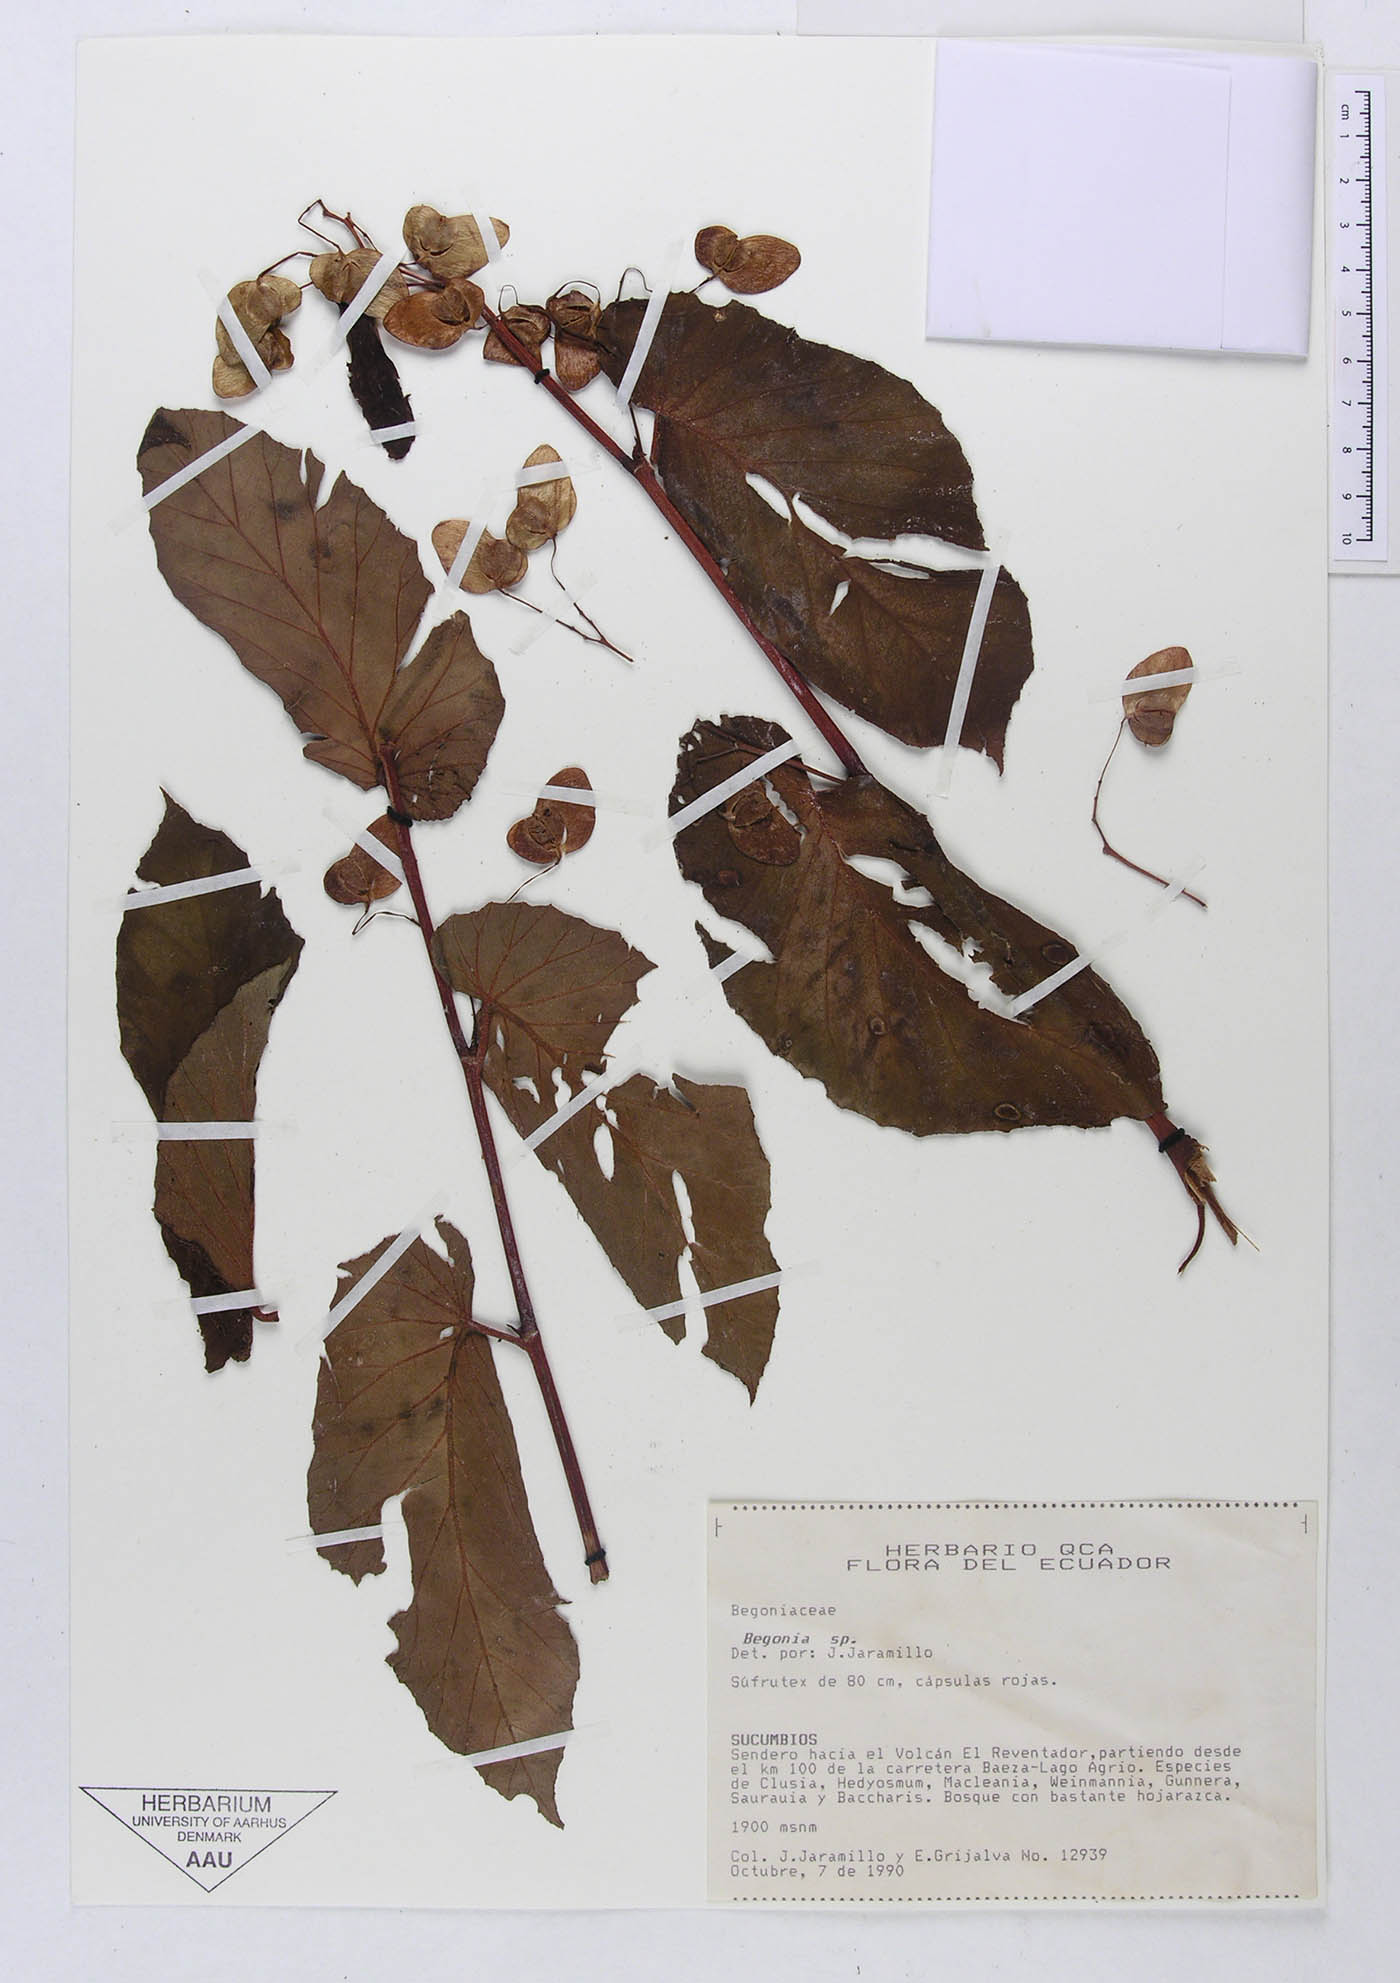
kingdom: Plantae
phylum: Tracheophyta
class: Magnoliopsida
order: Cucurbitales
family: Begoniaceae
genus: Begonia
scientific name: Begonia
